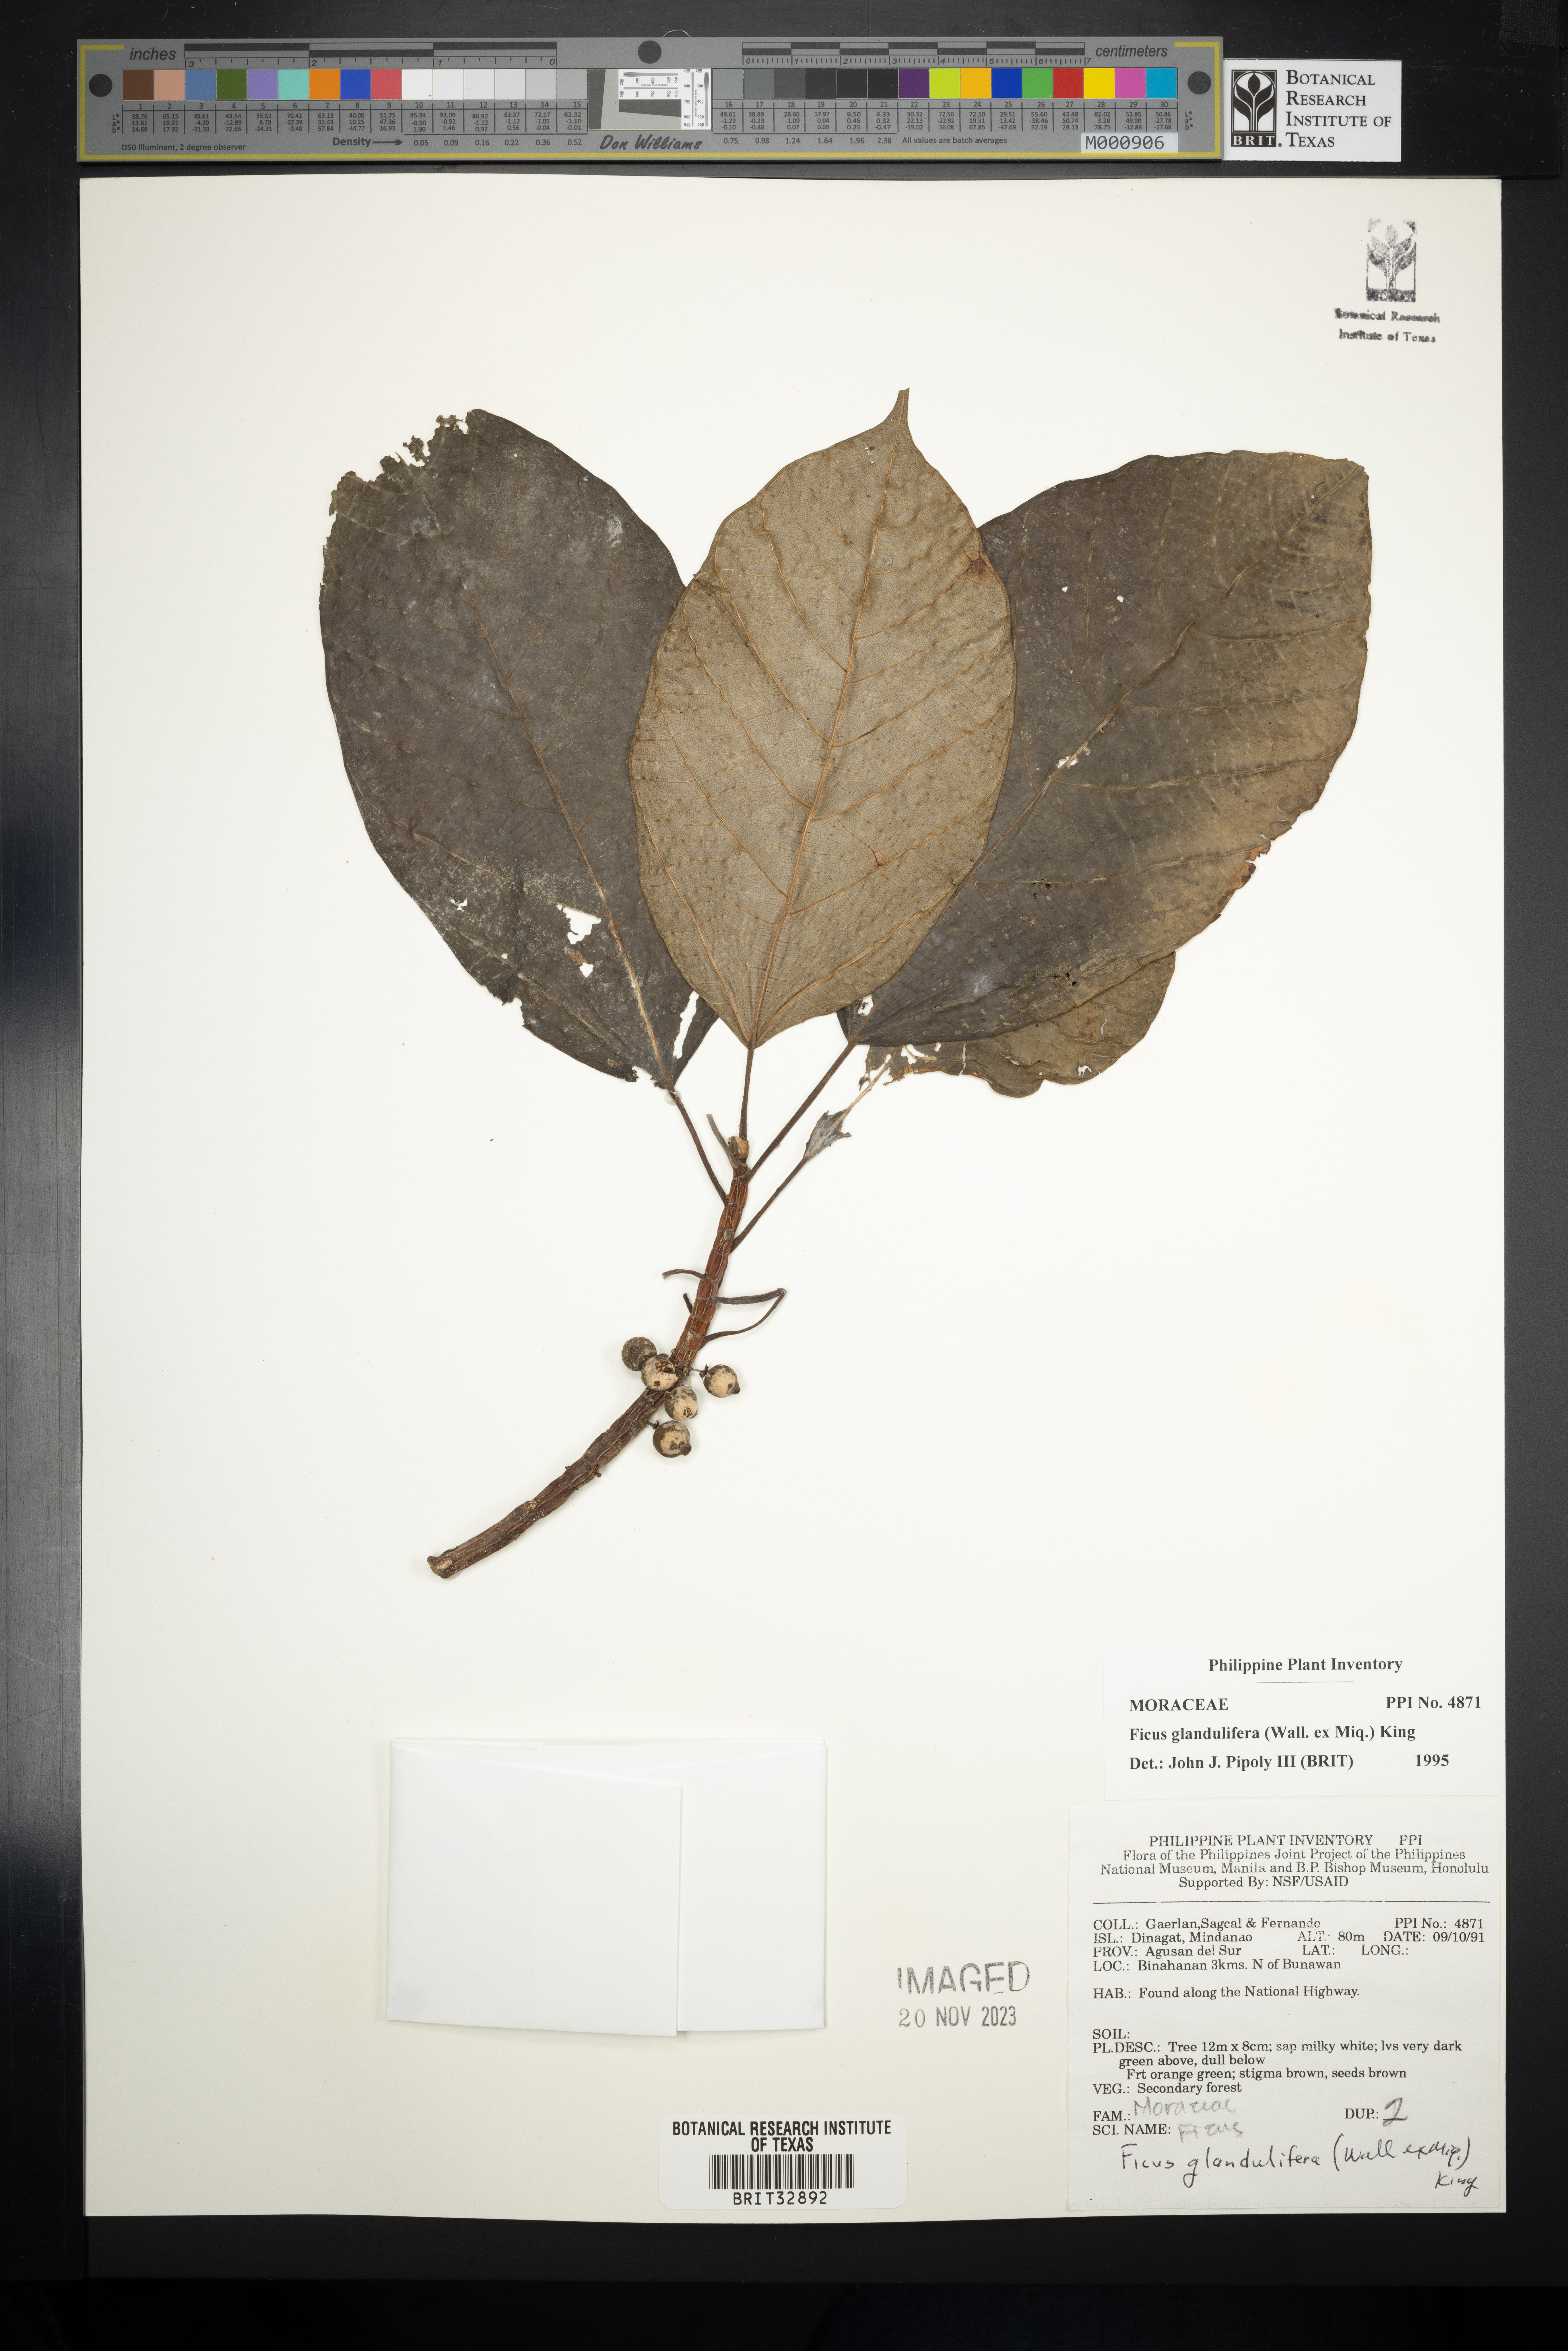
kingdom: Plantae
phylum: Tracheophyta
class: Magnoliopsida
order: Rosales
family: Moraceae
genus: Ficus
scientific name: Ficus glandulifera
